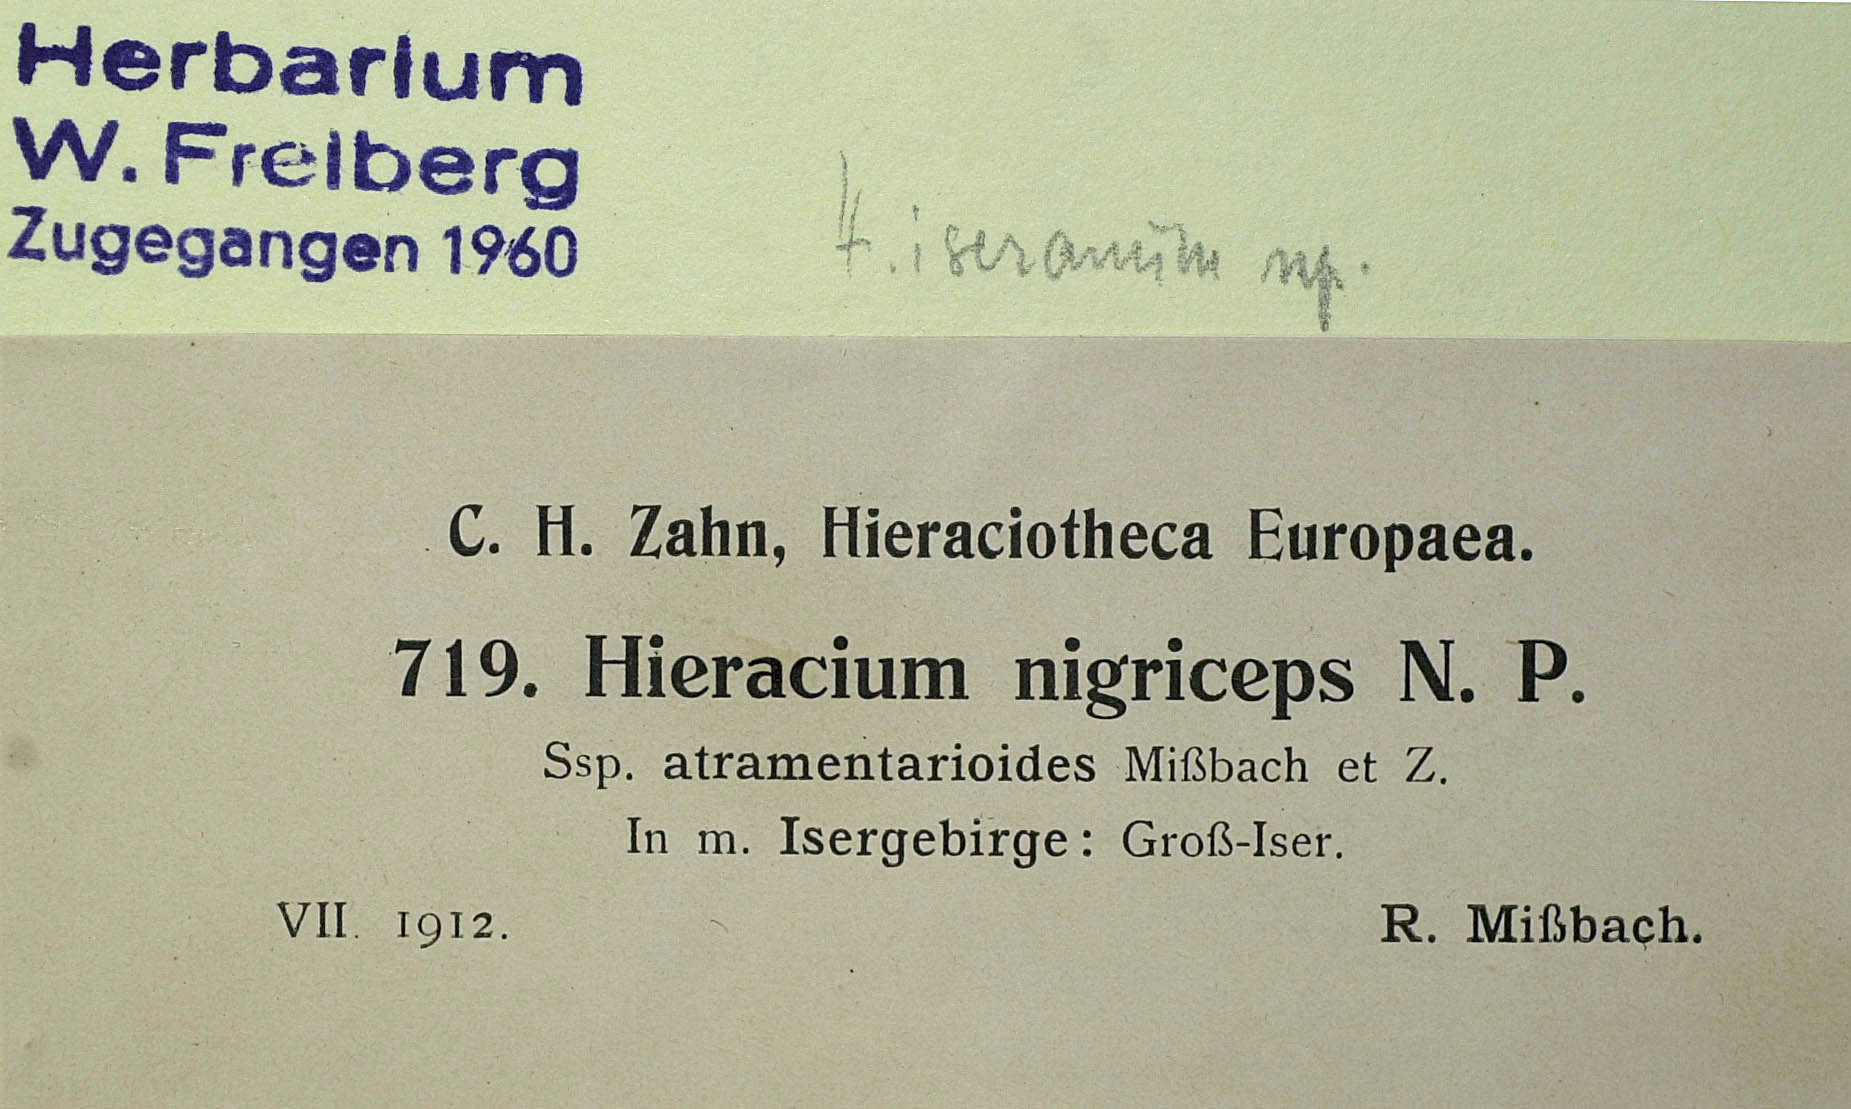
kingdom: Plantae
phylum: Tracheophyta
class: Magnoliopsida
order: Asterales
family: Asteraceae
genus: Pilosella
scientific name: Pilosella iserana
